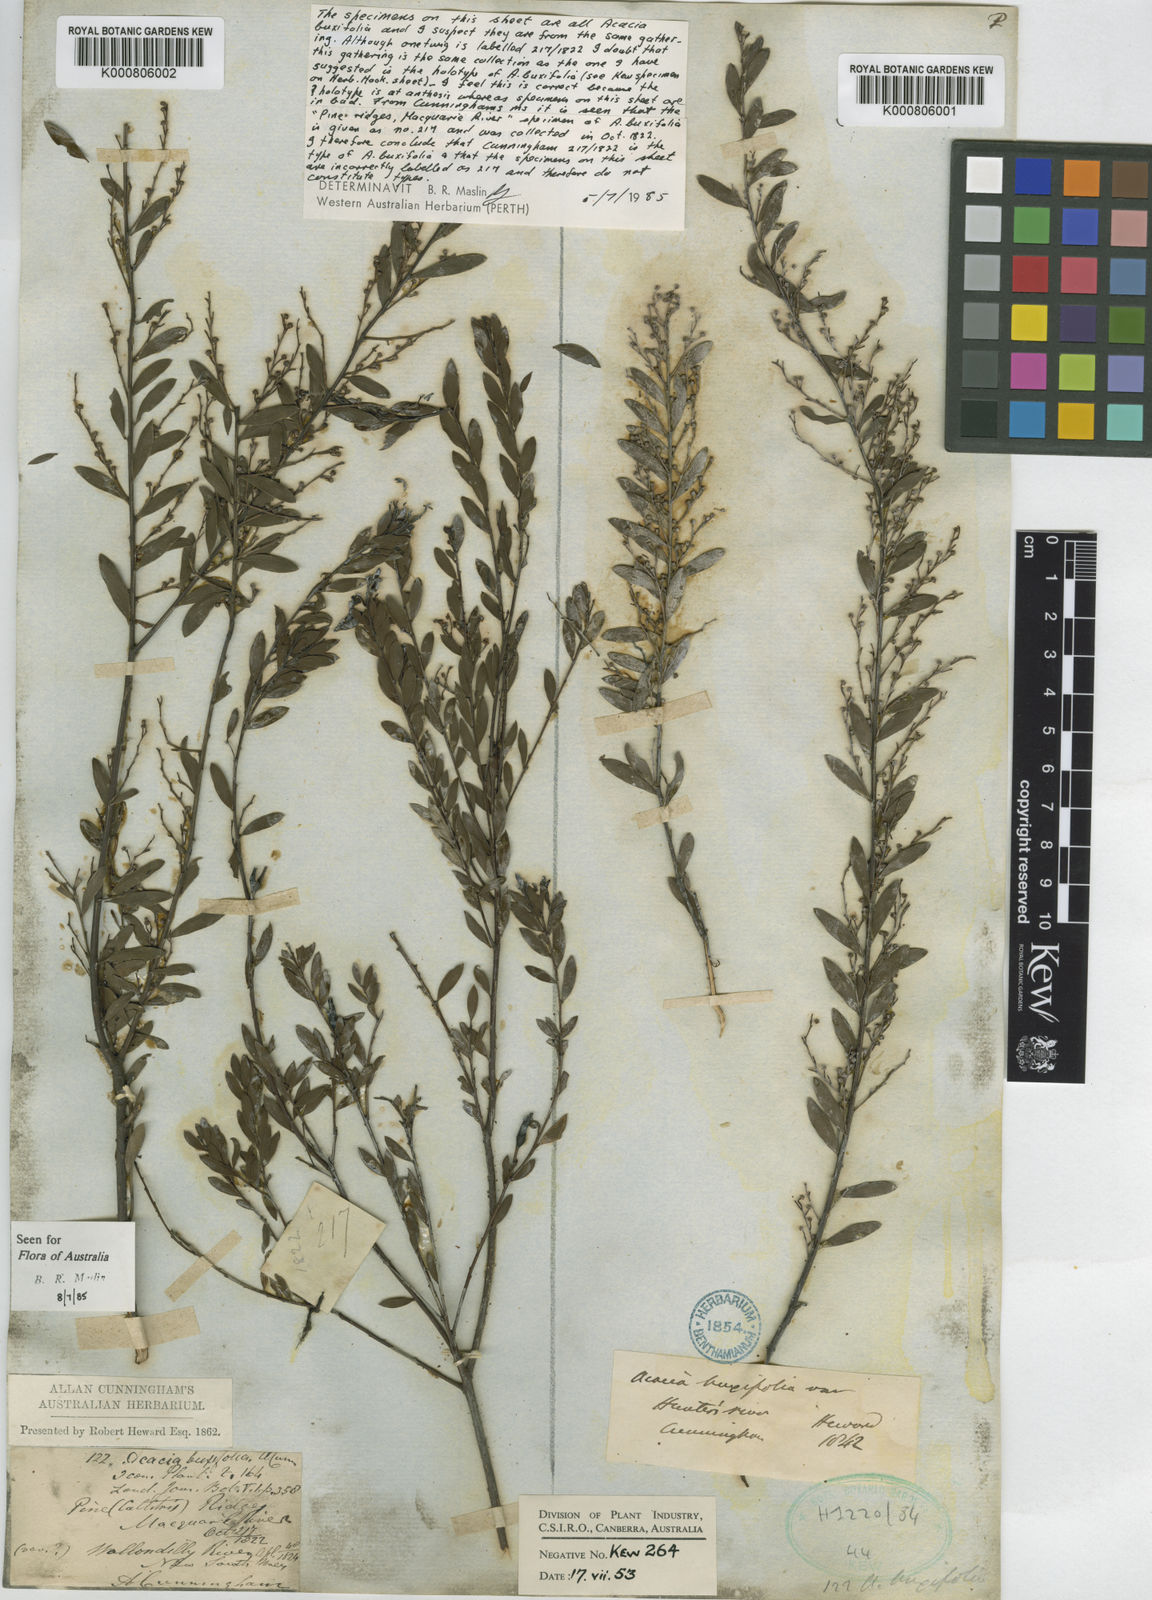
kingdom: Plantae
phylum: Tracheophyta
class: Magnoliopsida
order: Fabales
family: Fabaceae
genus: Acacia
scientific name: Acacia buxifolia
